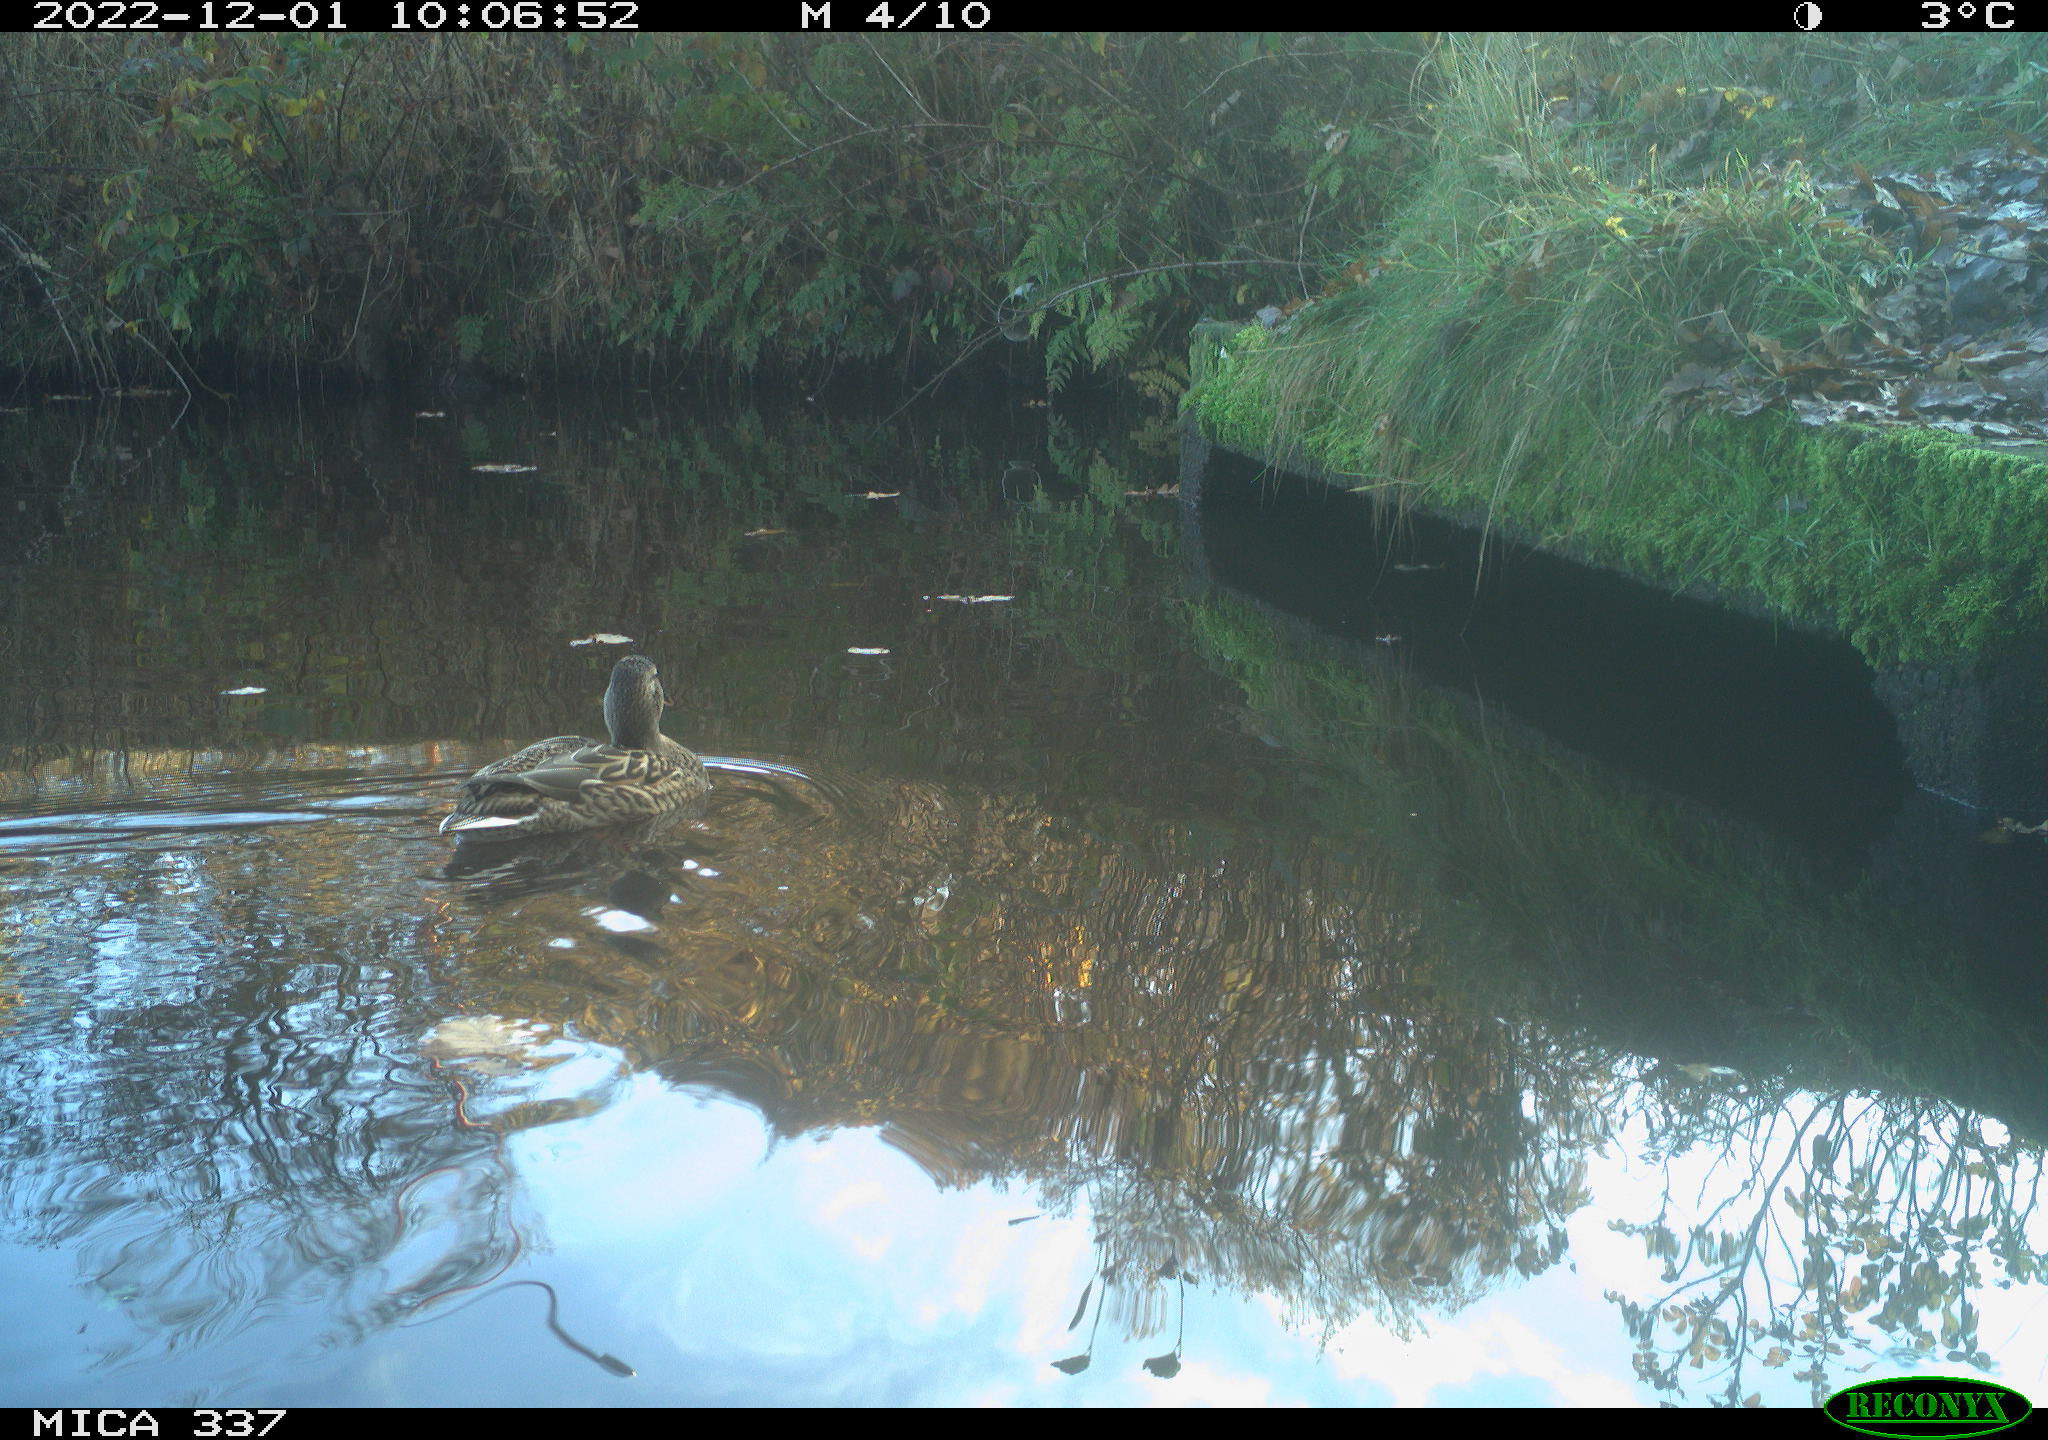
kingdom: Animalia
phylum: Chordata
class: Aves
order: Anseriformes
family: Anatidae
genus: Anas
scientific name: Anas
